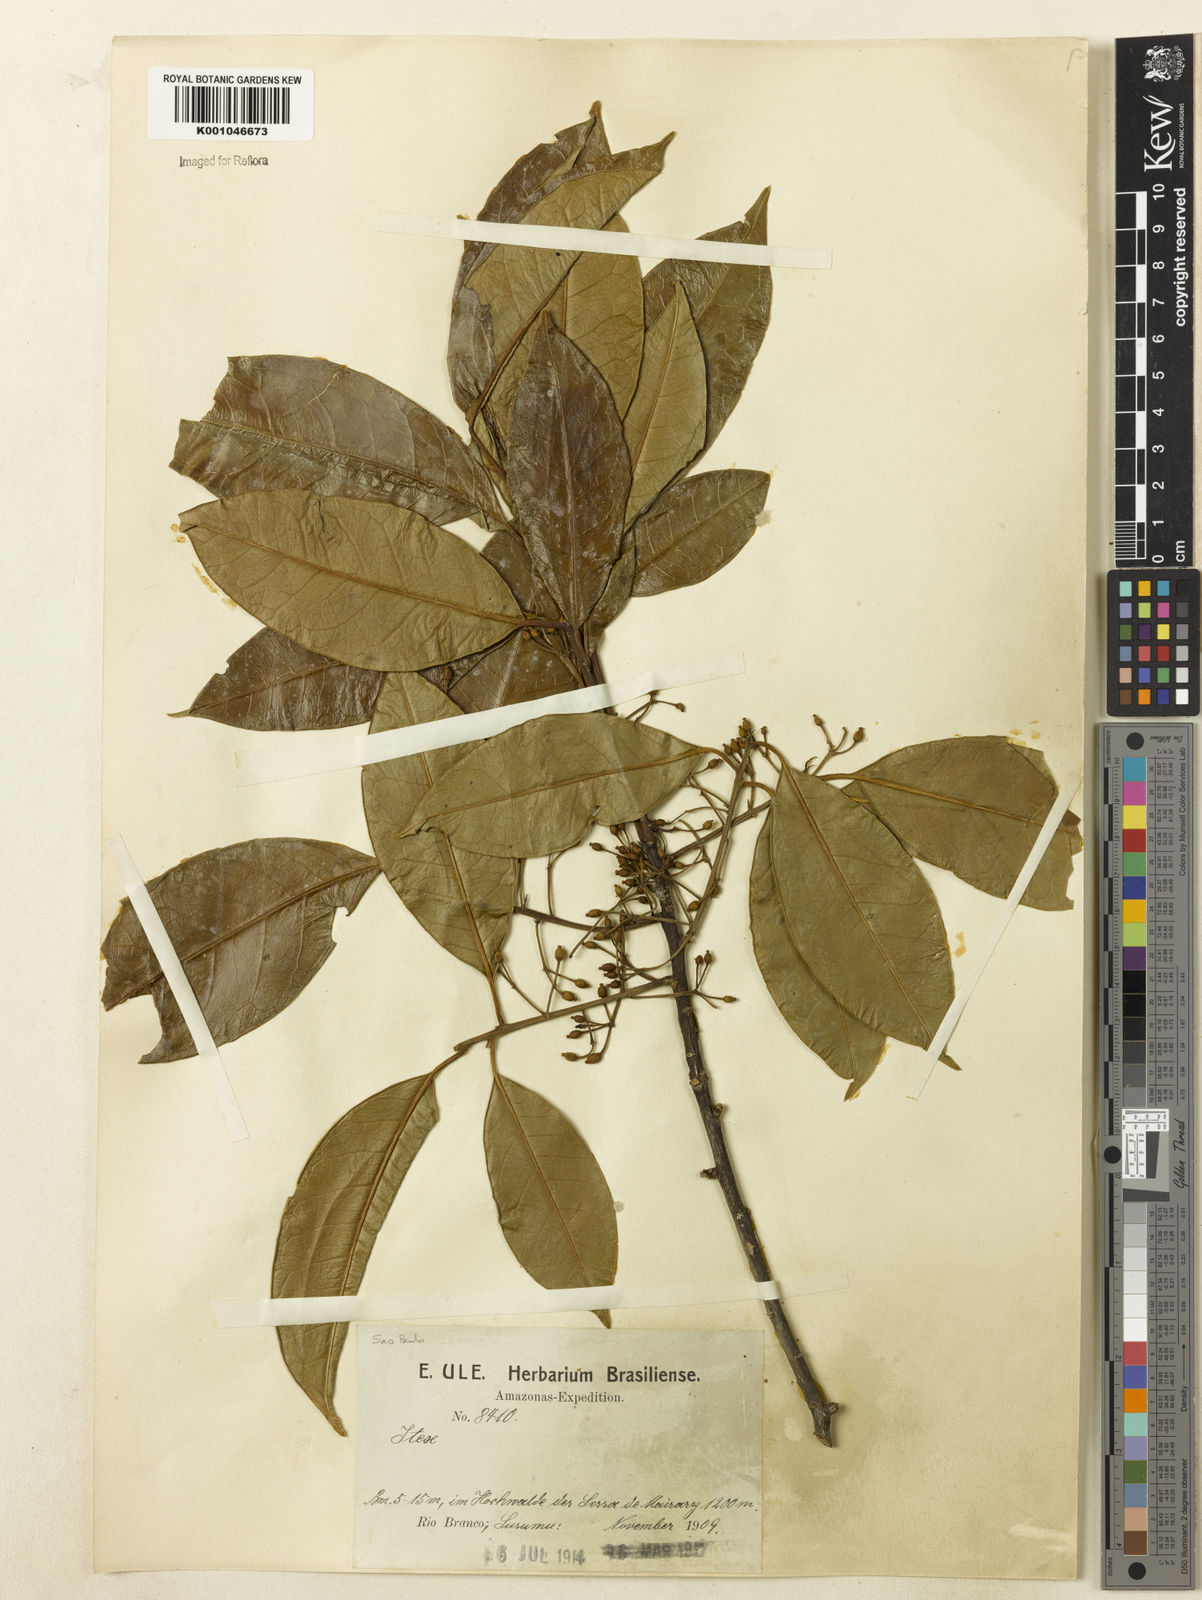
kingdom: Plantae
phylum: Tracheophyta
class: Magnoliopsida
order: Aquifoliales
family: Aquifoliaceae
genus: Ilex
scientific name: Ilex lundii
